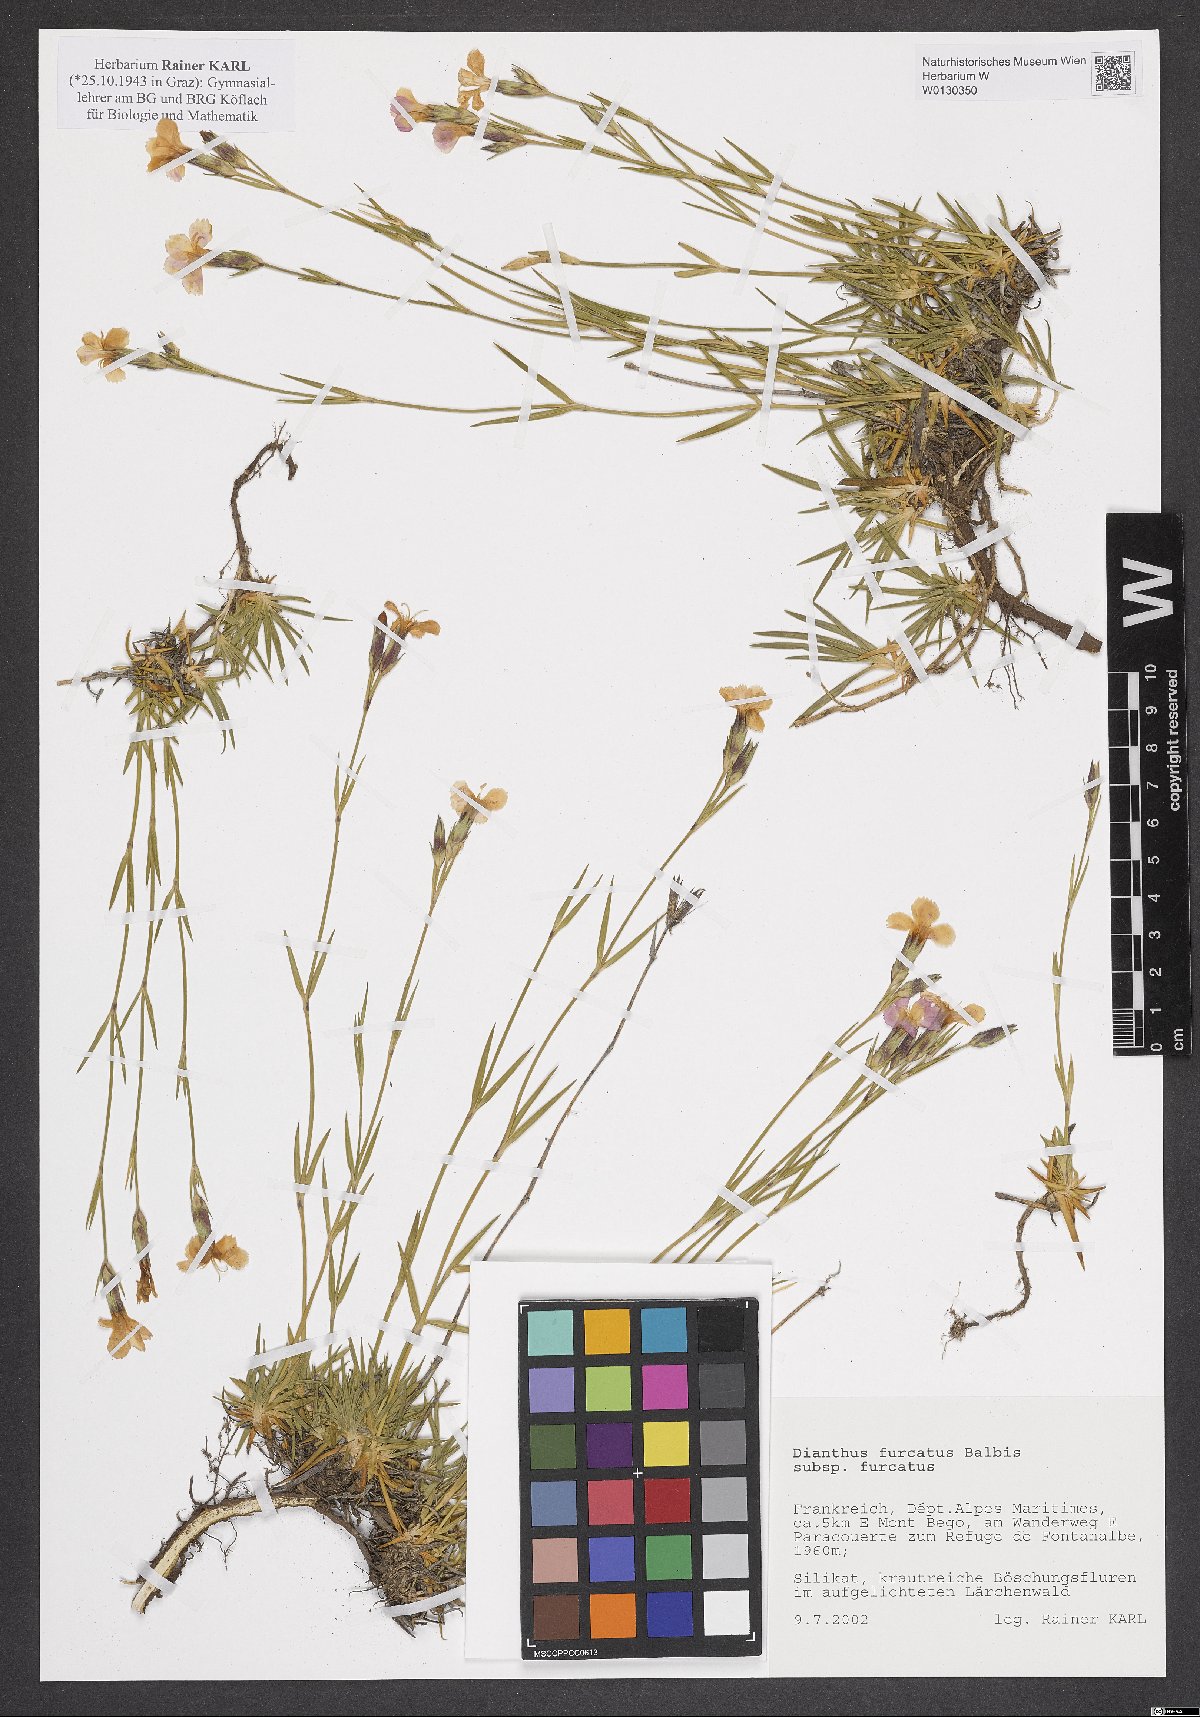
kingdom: Plantae
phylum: Tracheophyta
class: Magnoliopsida
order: Caryophyllales
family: Caryophyllaceae
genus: Dianthus
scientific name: Dianthus furcatus
